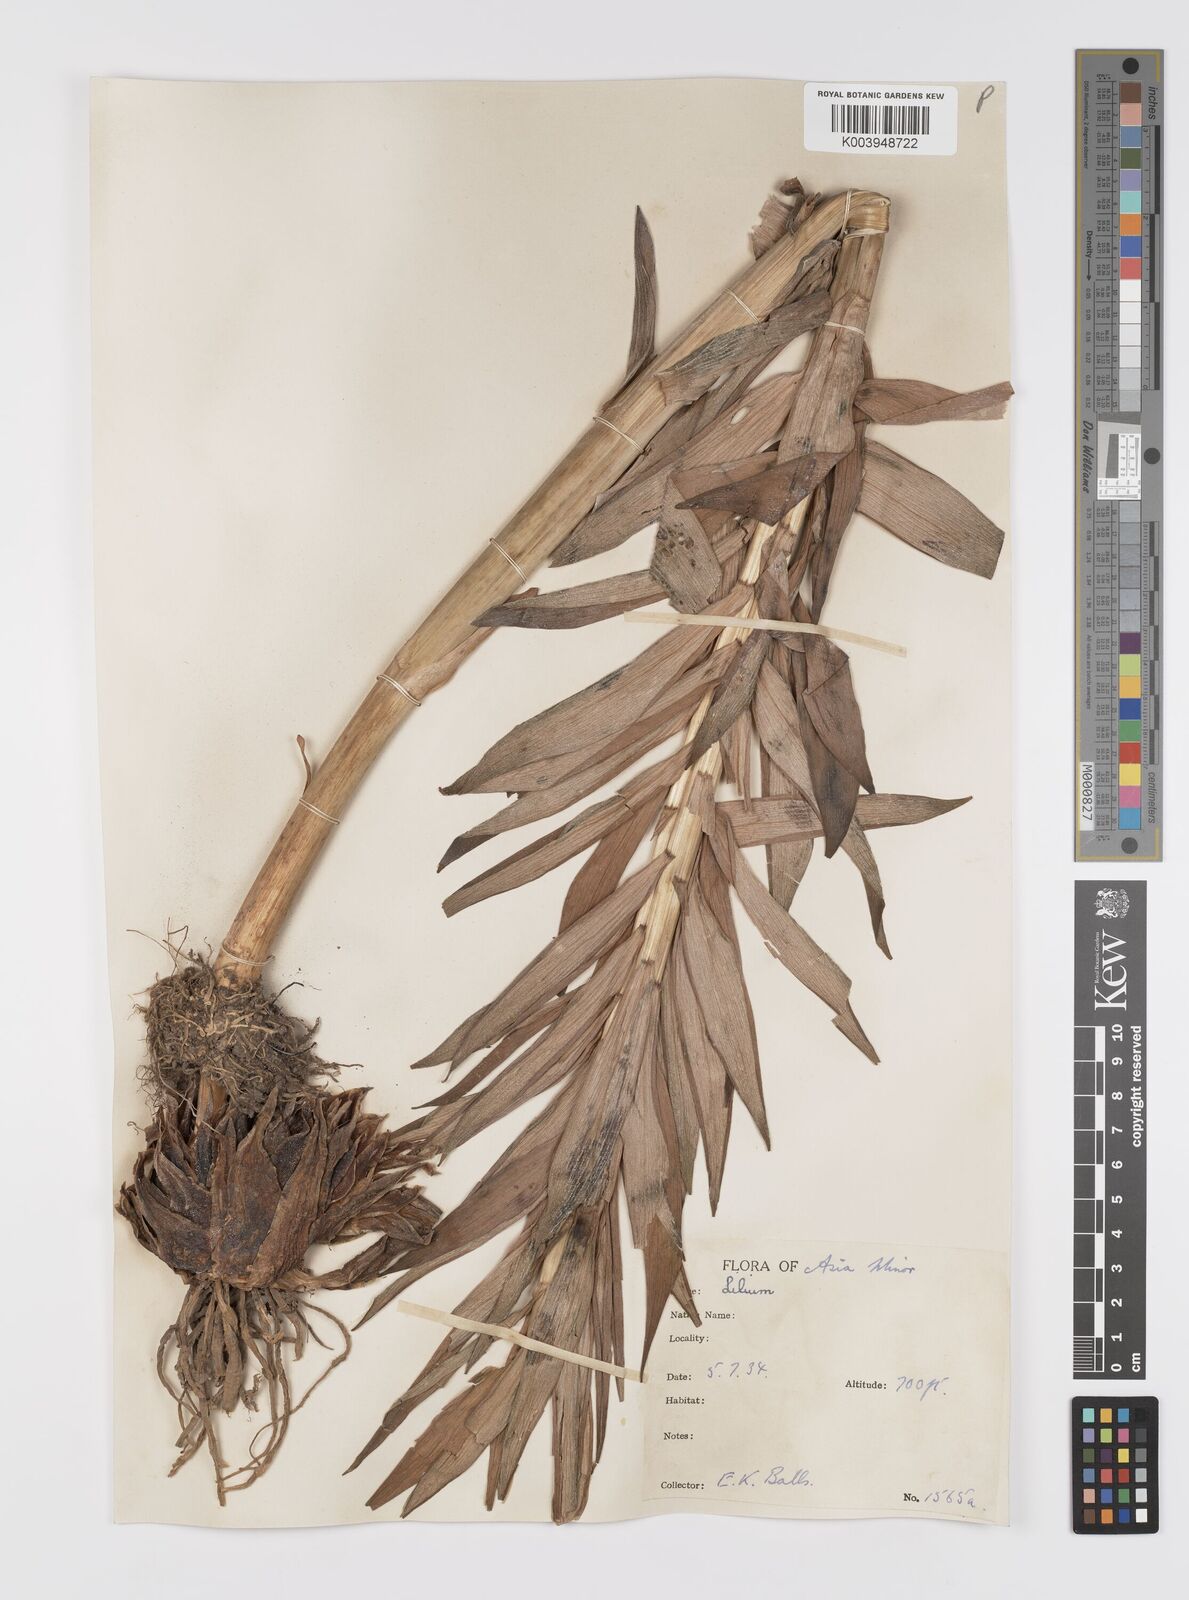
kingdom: Plantae
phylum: Tracheophyta
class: Liliopsida
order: Liliales
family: Liliaceae
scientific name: Liliaceae
